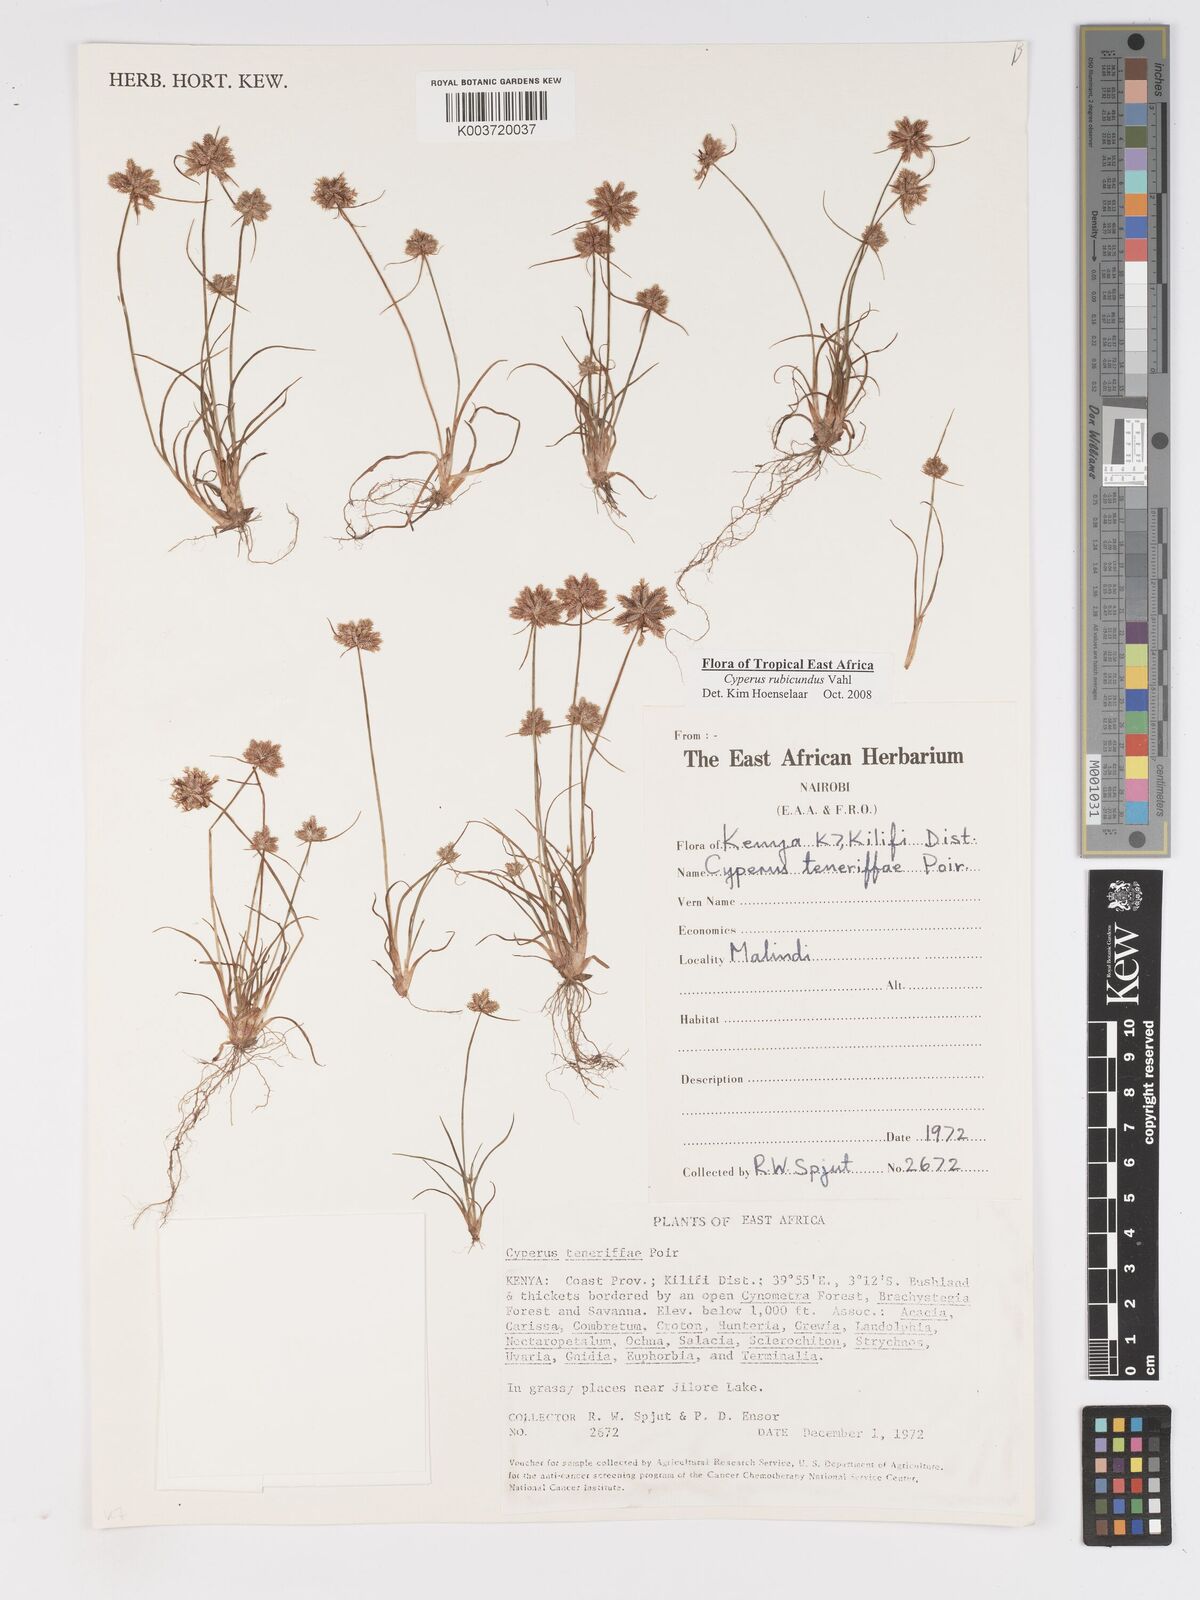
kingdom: Plantae
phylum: Tracheophyta
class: Liliopsida
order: Poales
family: Cyperaceae
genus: Cyperus
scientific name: Cyperus rubicundus
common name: Coco-grass
